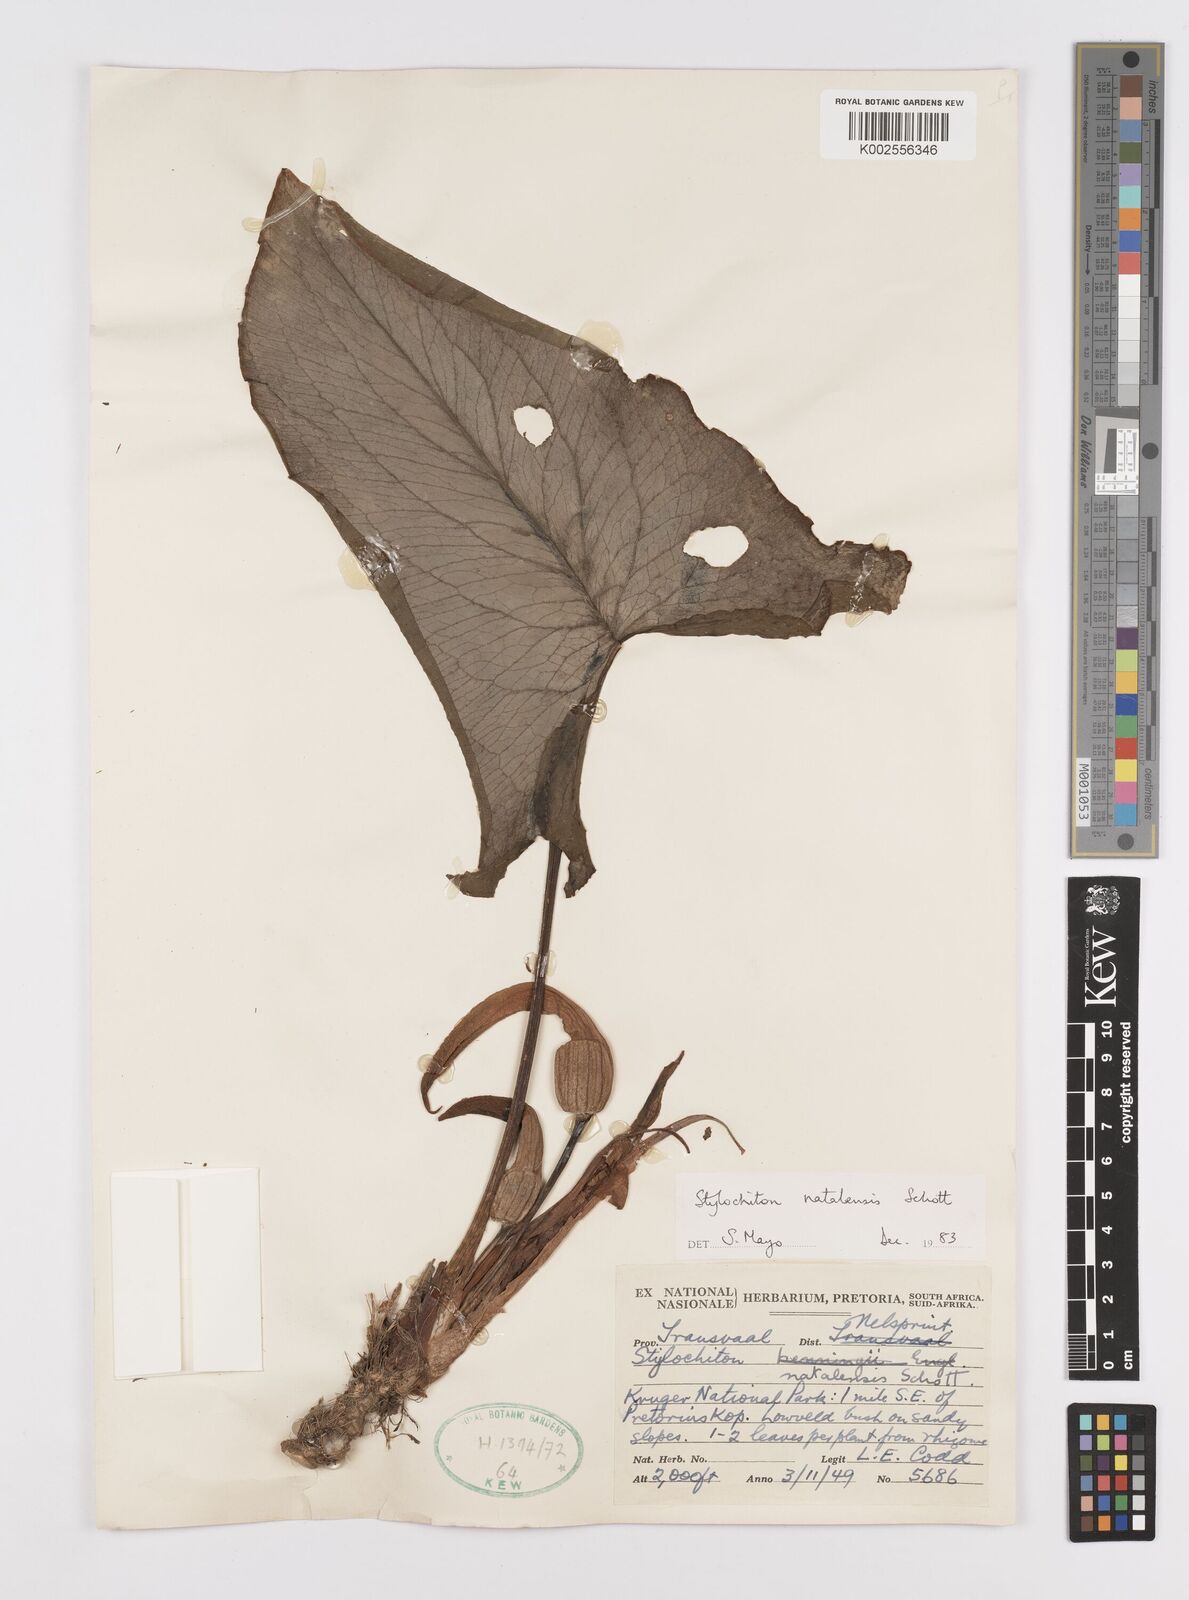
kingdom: Plantae
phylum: Tracheophyta
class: Liliopsida
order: Alismatales
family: Araceae
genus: Stylochaeton
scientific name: Stylochaeton natalense
